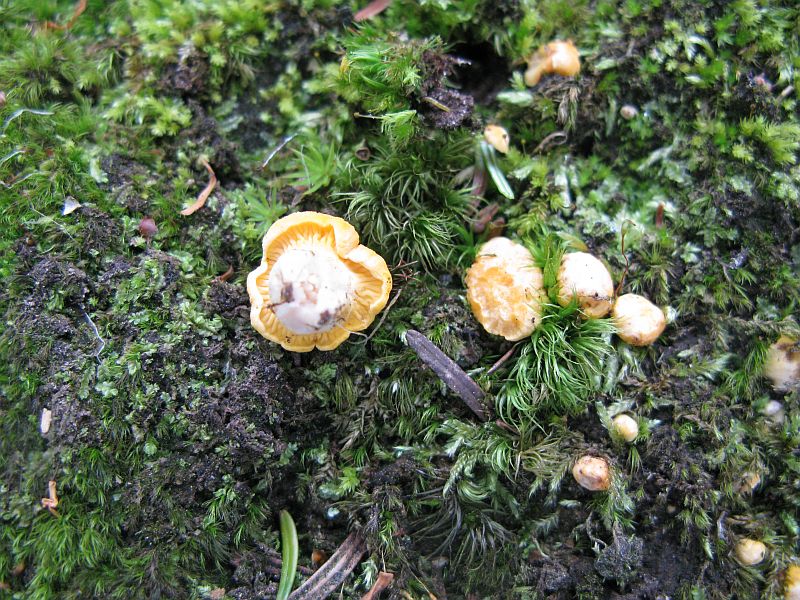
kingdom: Fungi
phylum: Basidiomycota
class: Agaricomycetes
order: Cantharellales
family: Hydnaceae
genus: Cantharellus
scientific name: Cantharellus pallens
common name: bleg kantarel
